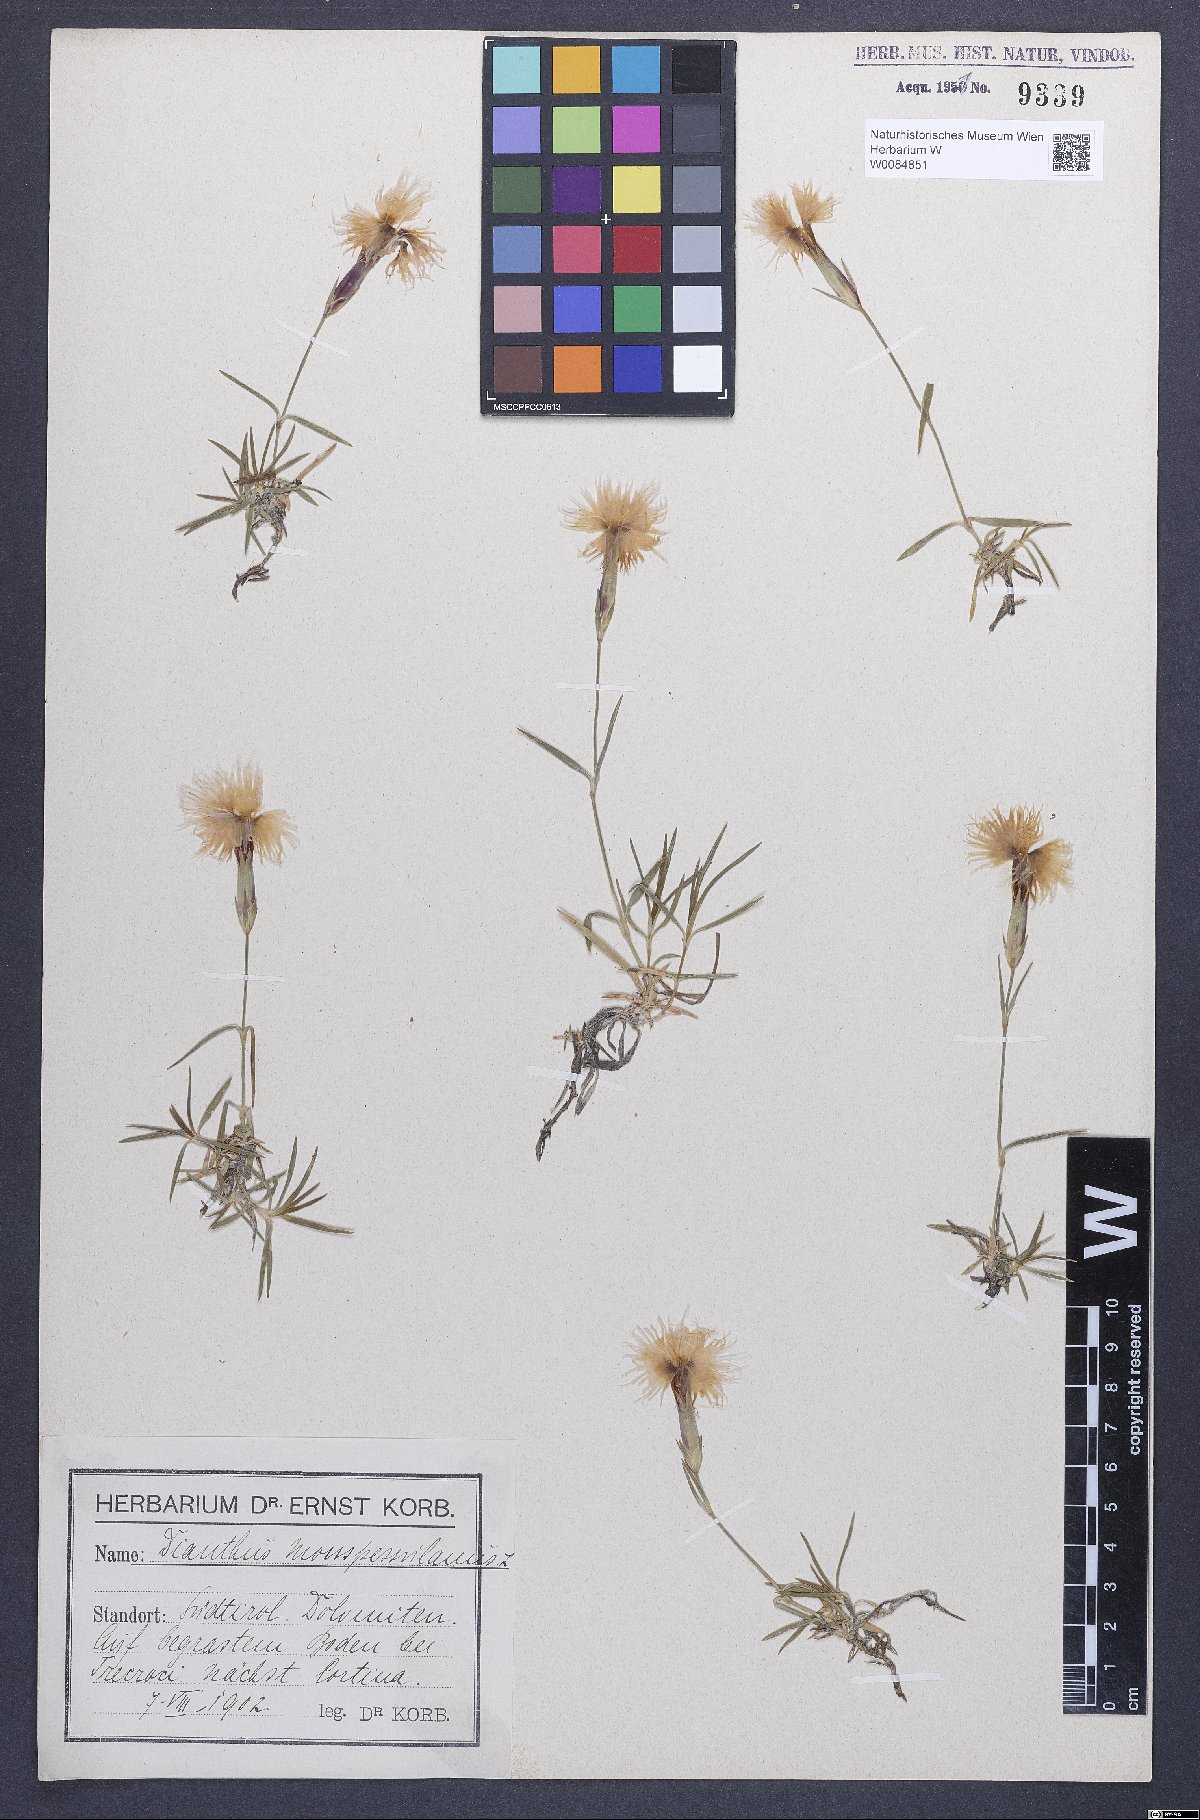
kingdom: Plantae
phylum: Tracheophyta
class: Magnoliopsida
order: Caryophyllales
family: Caryophyllaceae
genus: Dianthus
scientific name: Dianthus hyssopifolius
